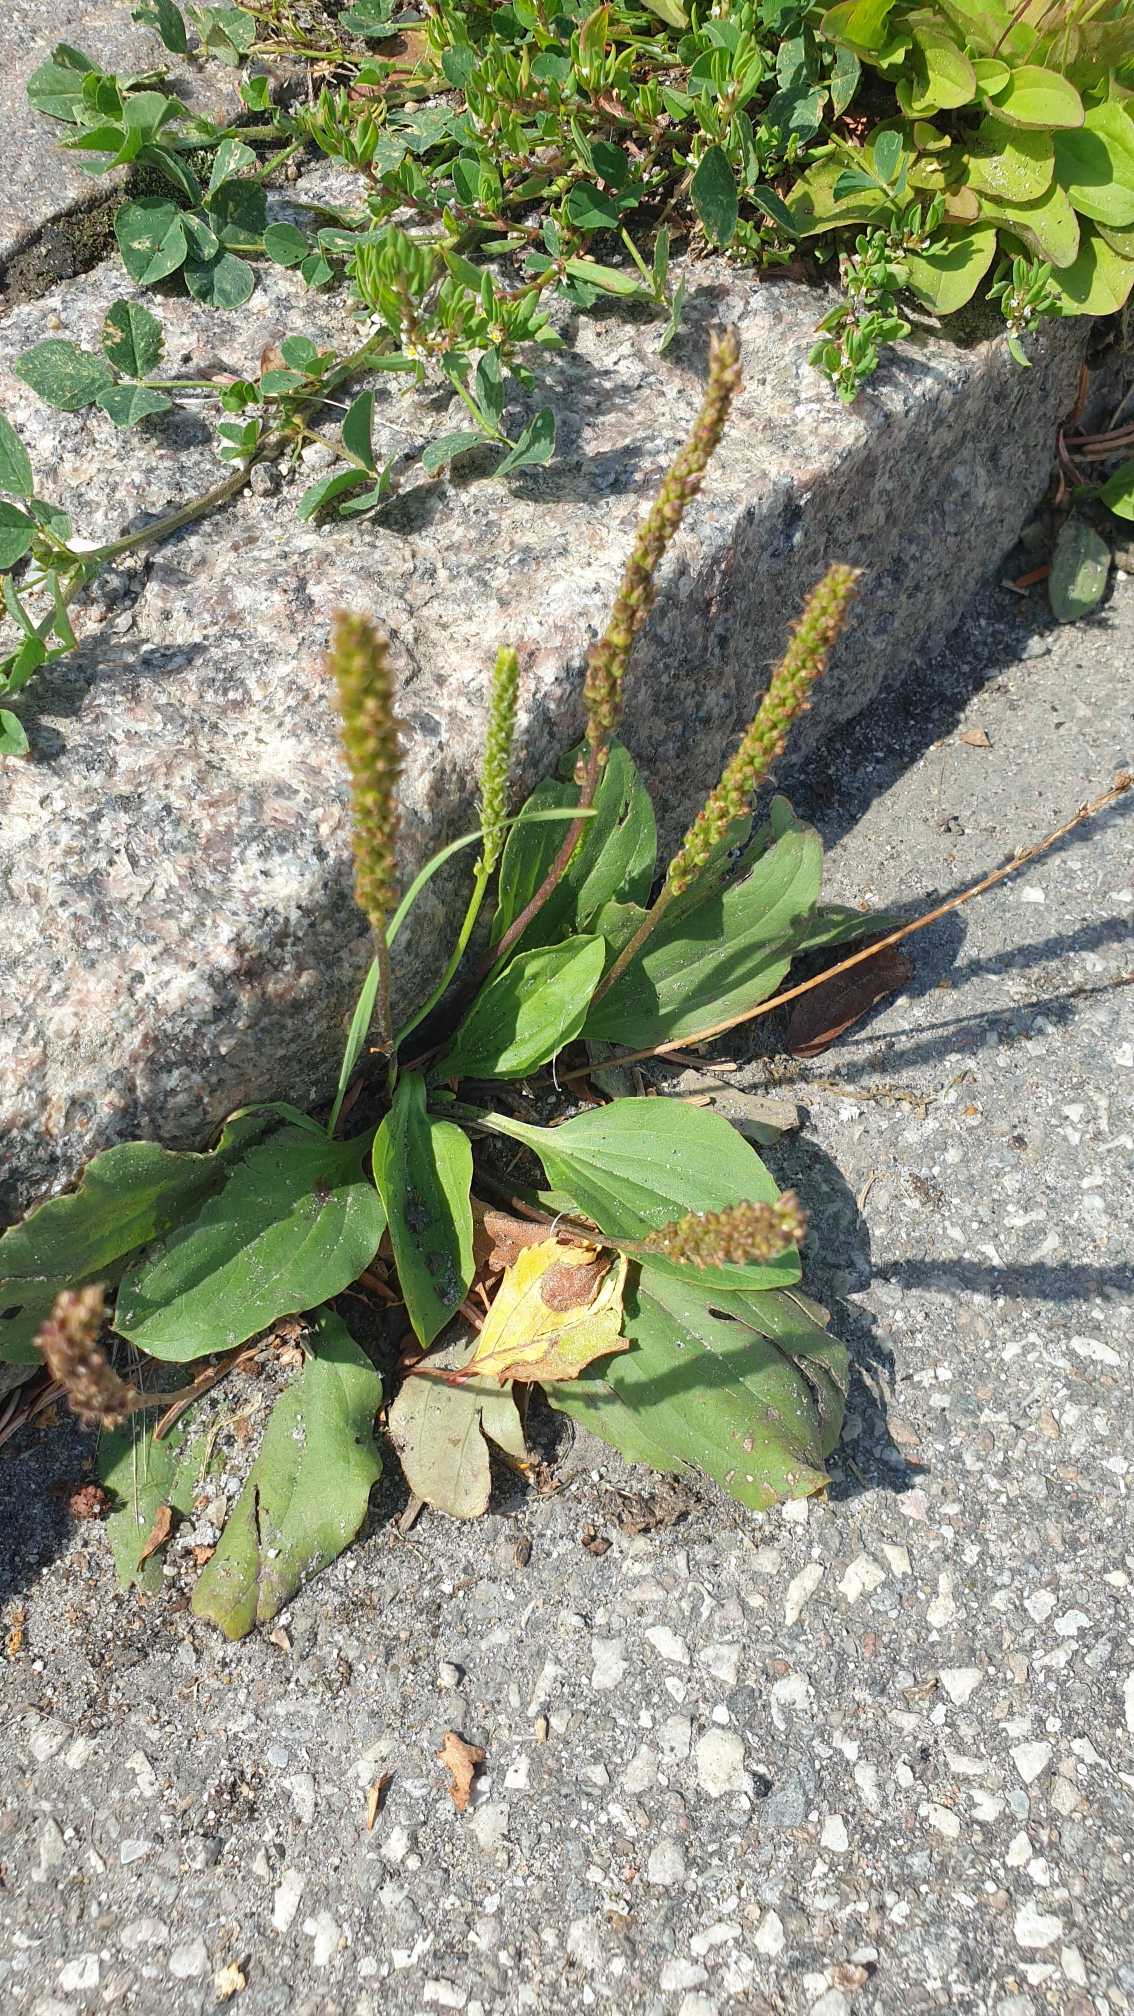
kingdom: Plantae
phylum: Tracheophyta
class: Magnoliopsida
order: Lamiales
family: Plantaginaceae
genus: Plantago
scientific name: Plantago major
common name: Glat vejbred
